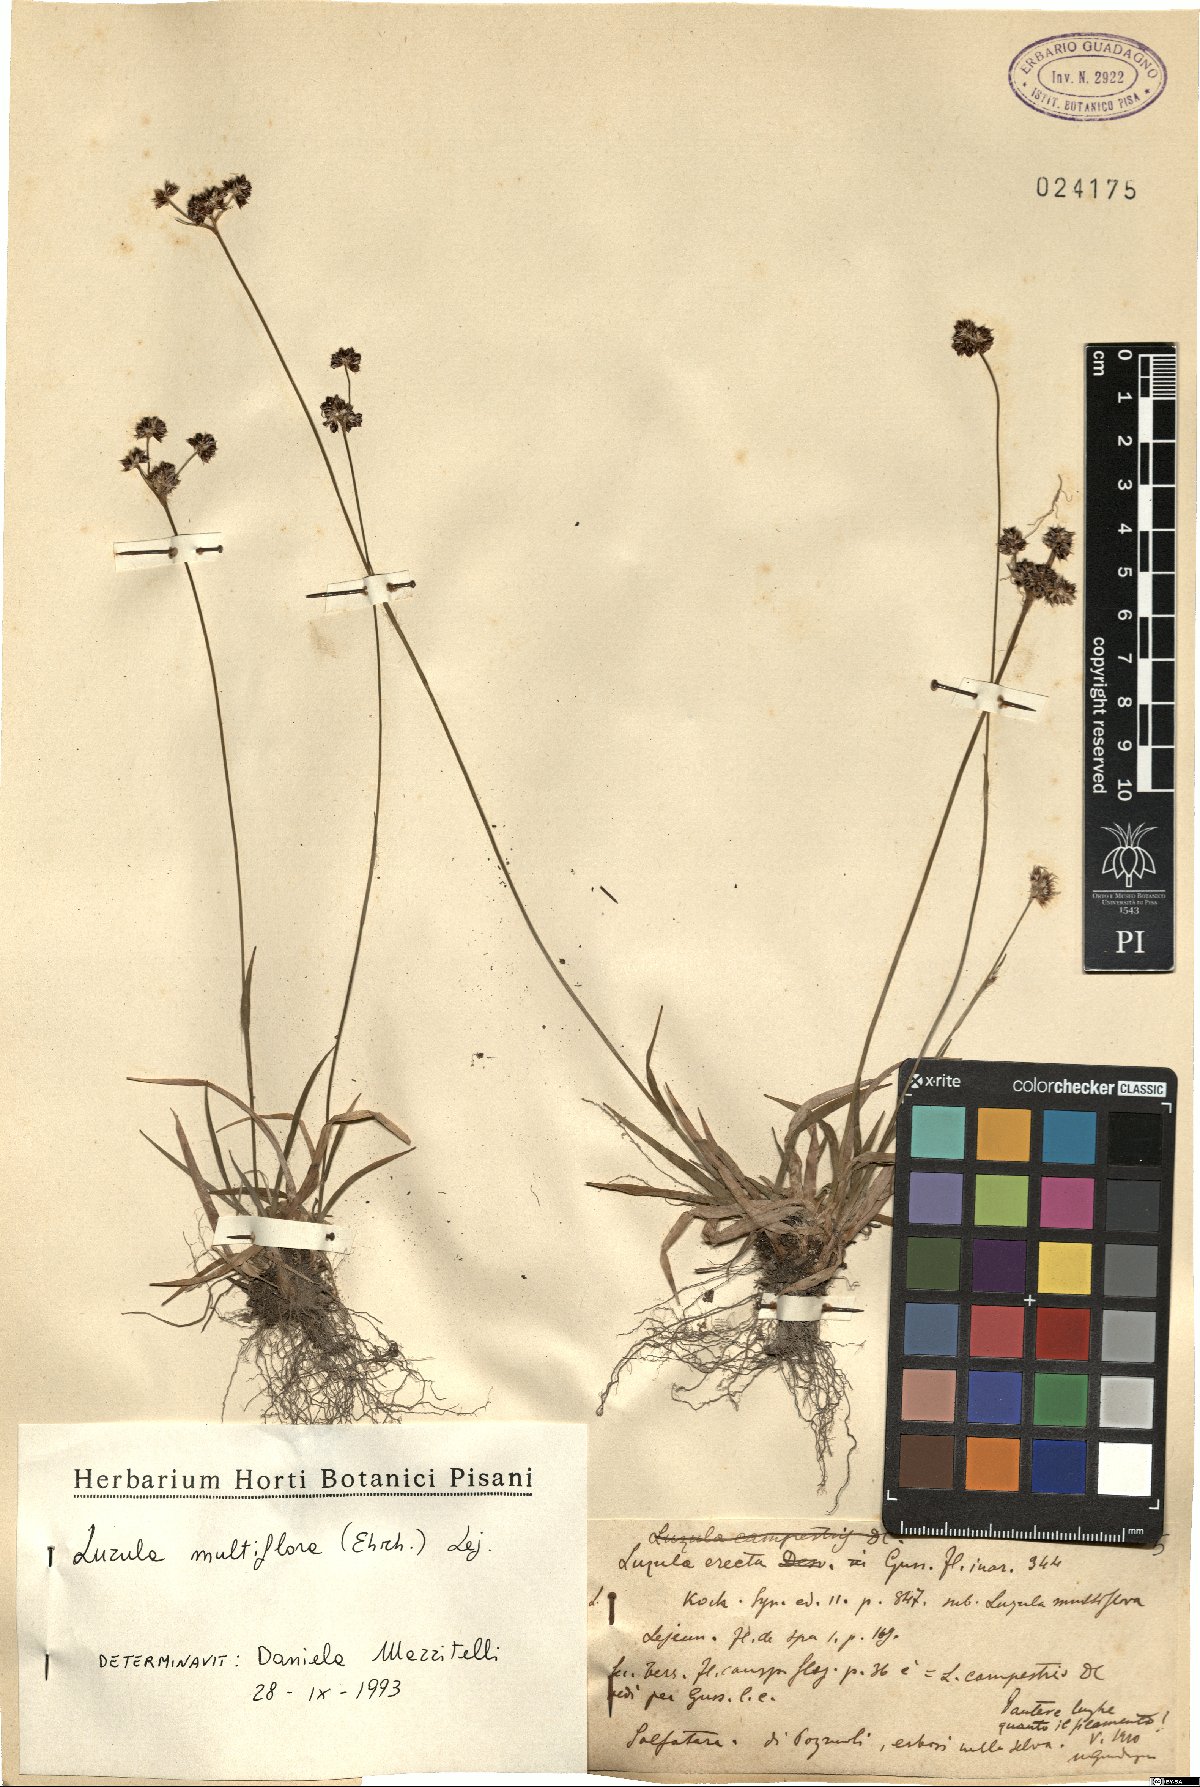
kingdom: Plantae
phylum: Tracheophyta
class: Liliopsida
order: Poales
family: Juncaceae
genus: Luzula
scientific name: Luzula multiflora
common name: Heath wood-rush
